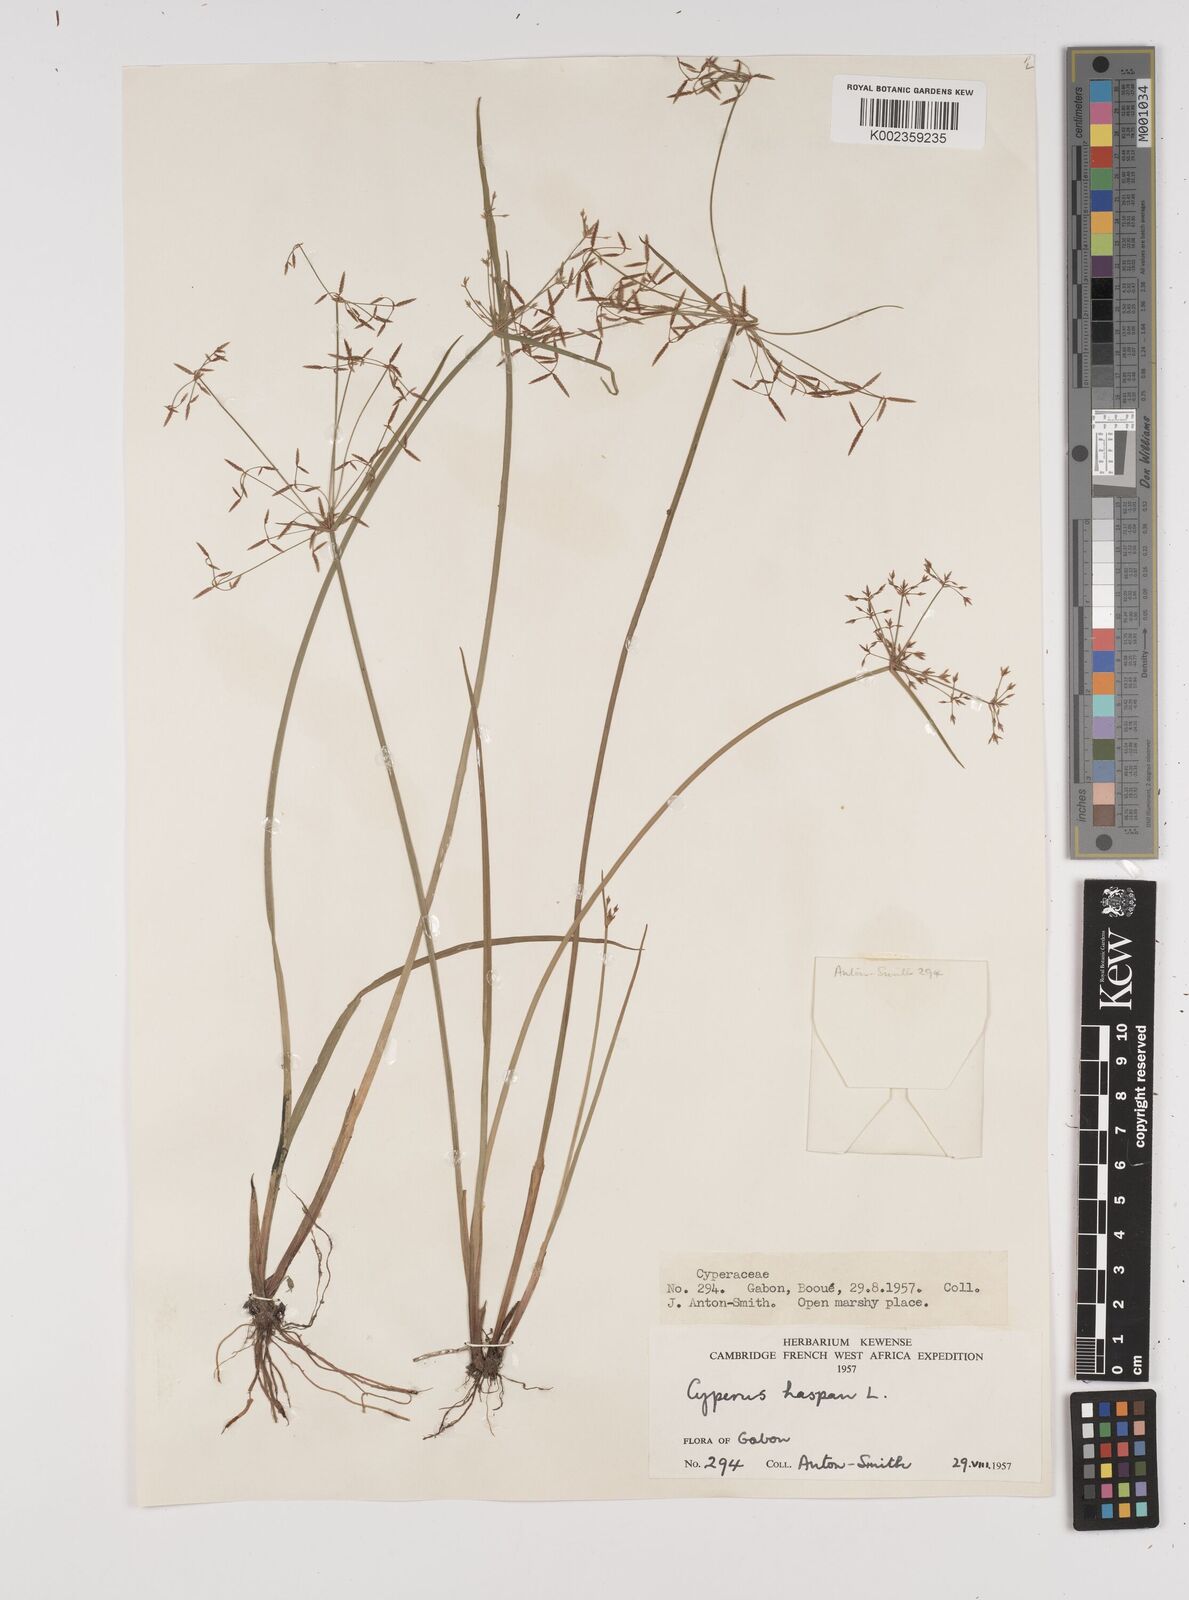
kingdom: Plantae
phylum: Tracheophyta
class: Liliopsida
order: Poales
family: Cyperaceae
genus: Cyperus
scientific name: Cyperus haspan
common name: Haspan flatsedge
